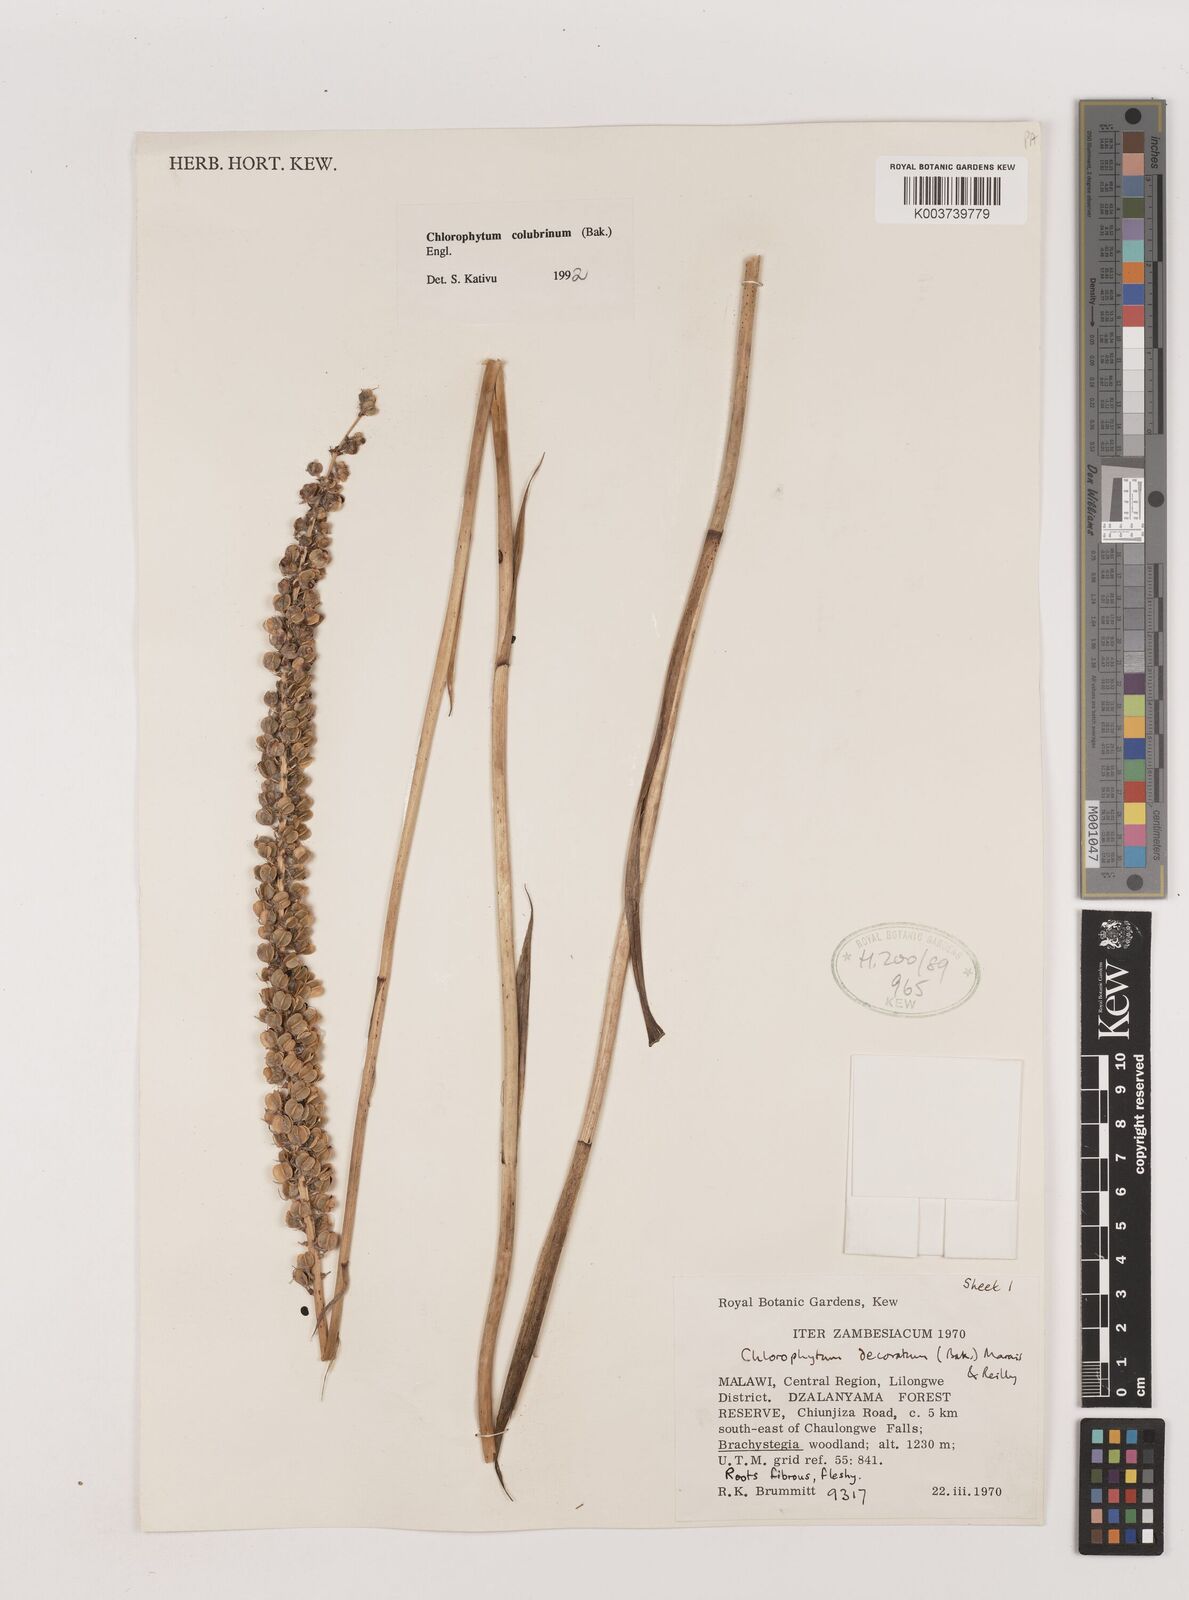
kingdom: Plantae
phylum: Tracheophyta
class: Liliopsida
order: Asparagales
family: Asparagaceae
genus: Chlorophytum
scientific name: Chlorophytum colubrinum
